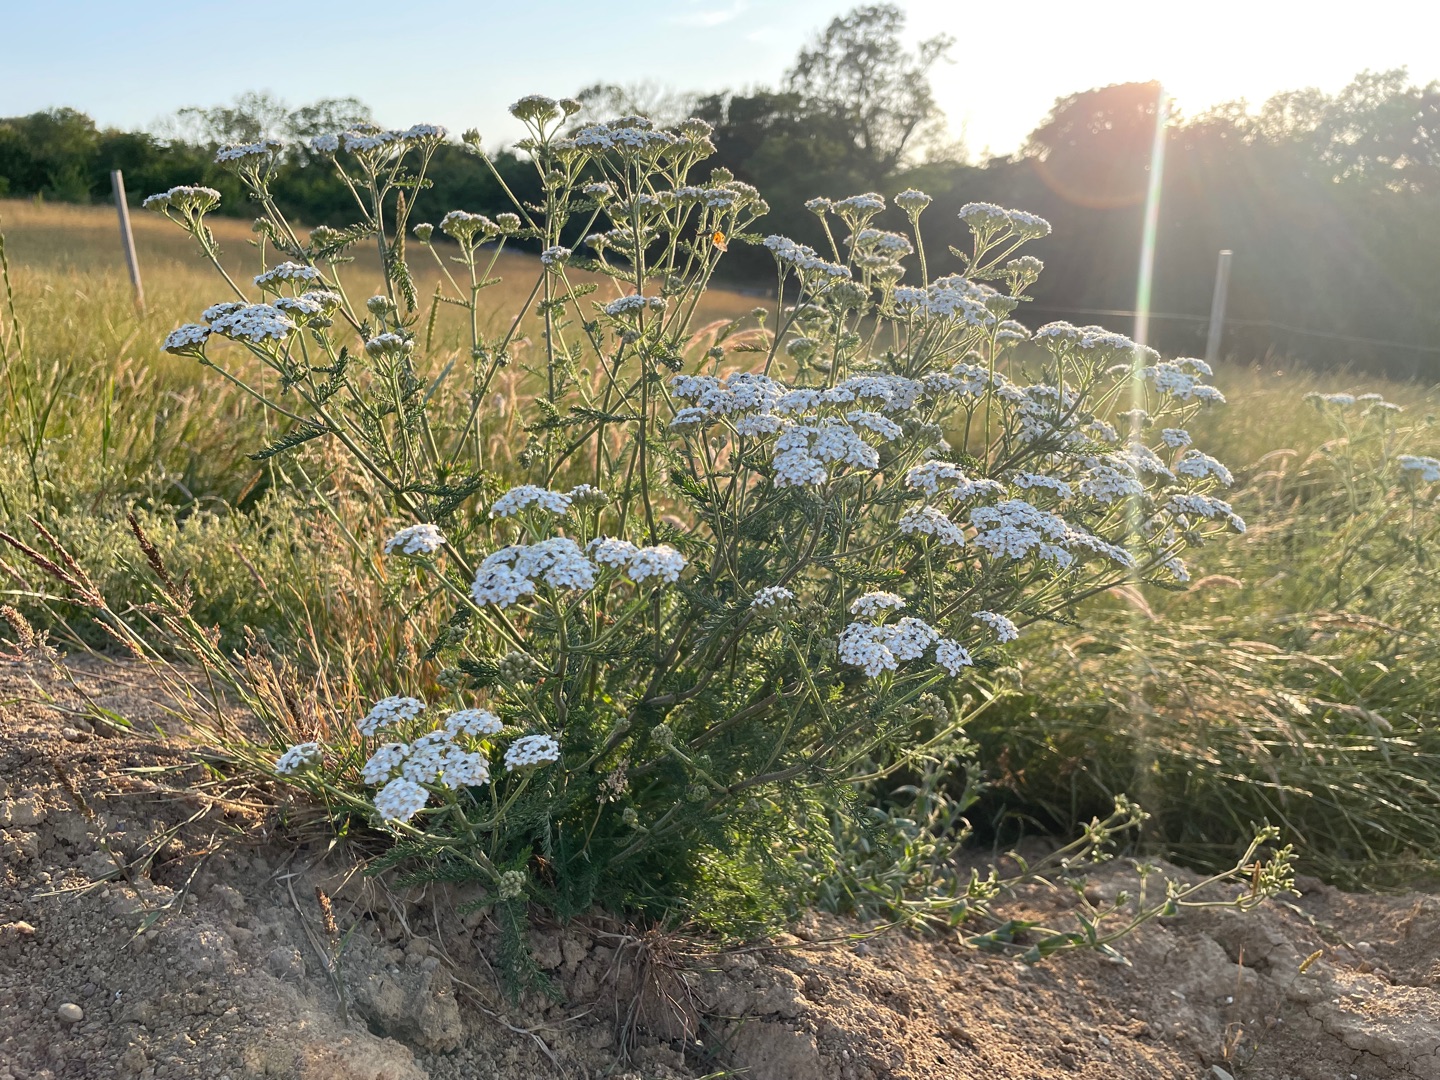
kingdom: Plantae
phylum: Tracheophyta
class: Magnoliopsida
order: Asterales
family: Asteraceae
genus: Achillea
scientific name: Achillea millefolium
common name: Almindelig røllike
